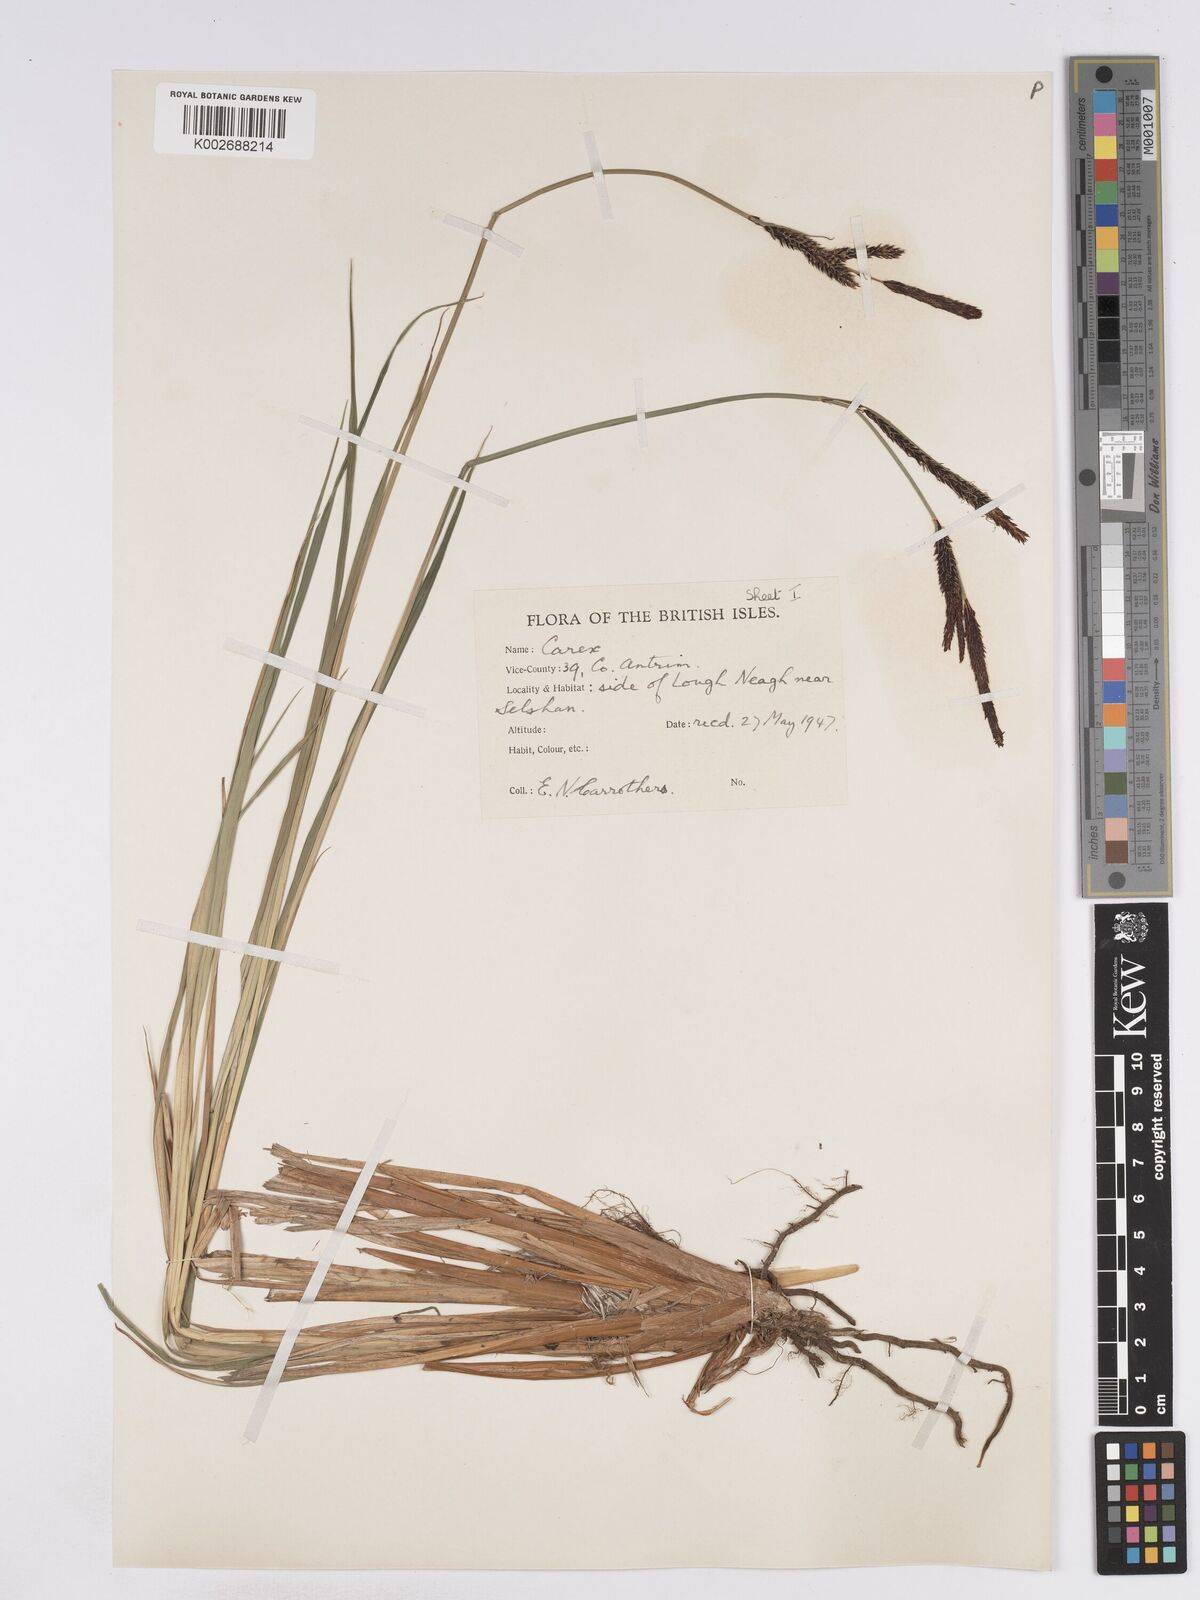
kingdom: Plantae
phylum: Tracheophyta
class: Liliopsida
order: Poales
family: Cyperaceae
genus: Carex
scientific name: Carex elata
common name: Tufted sedge
